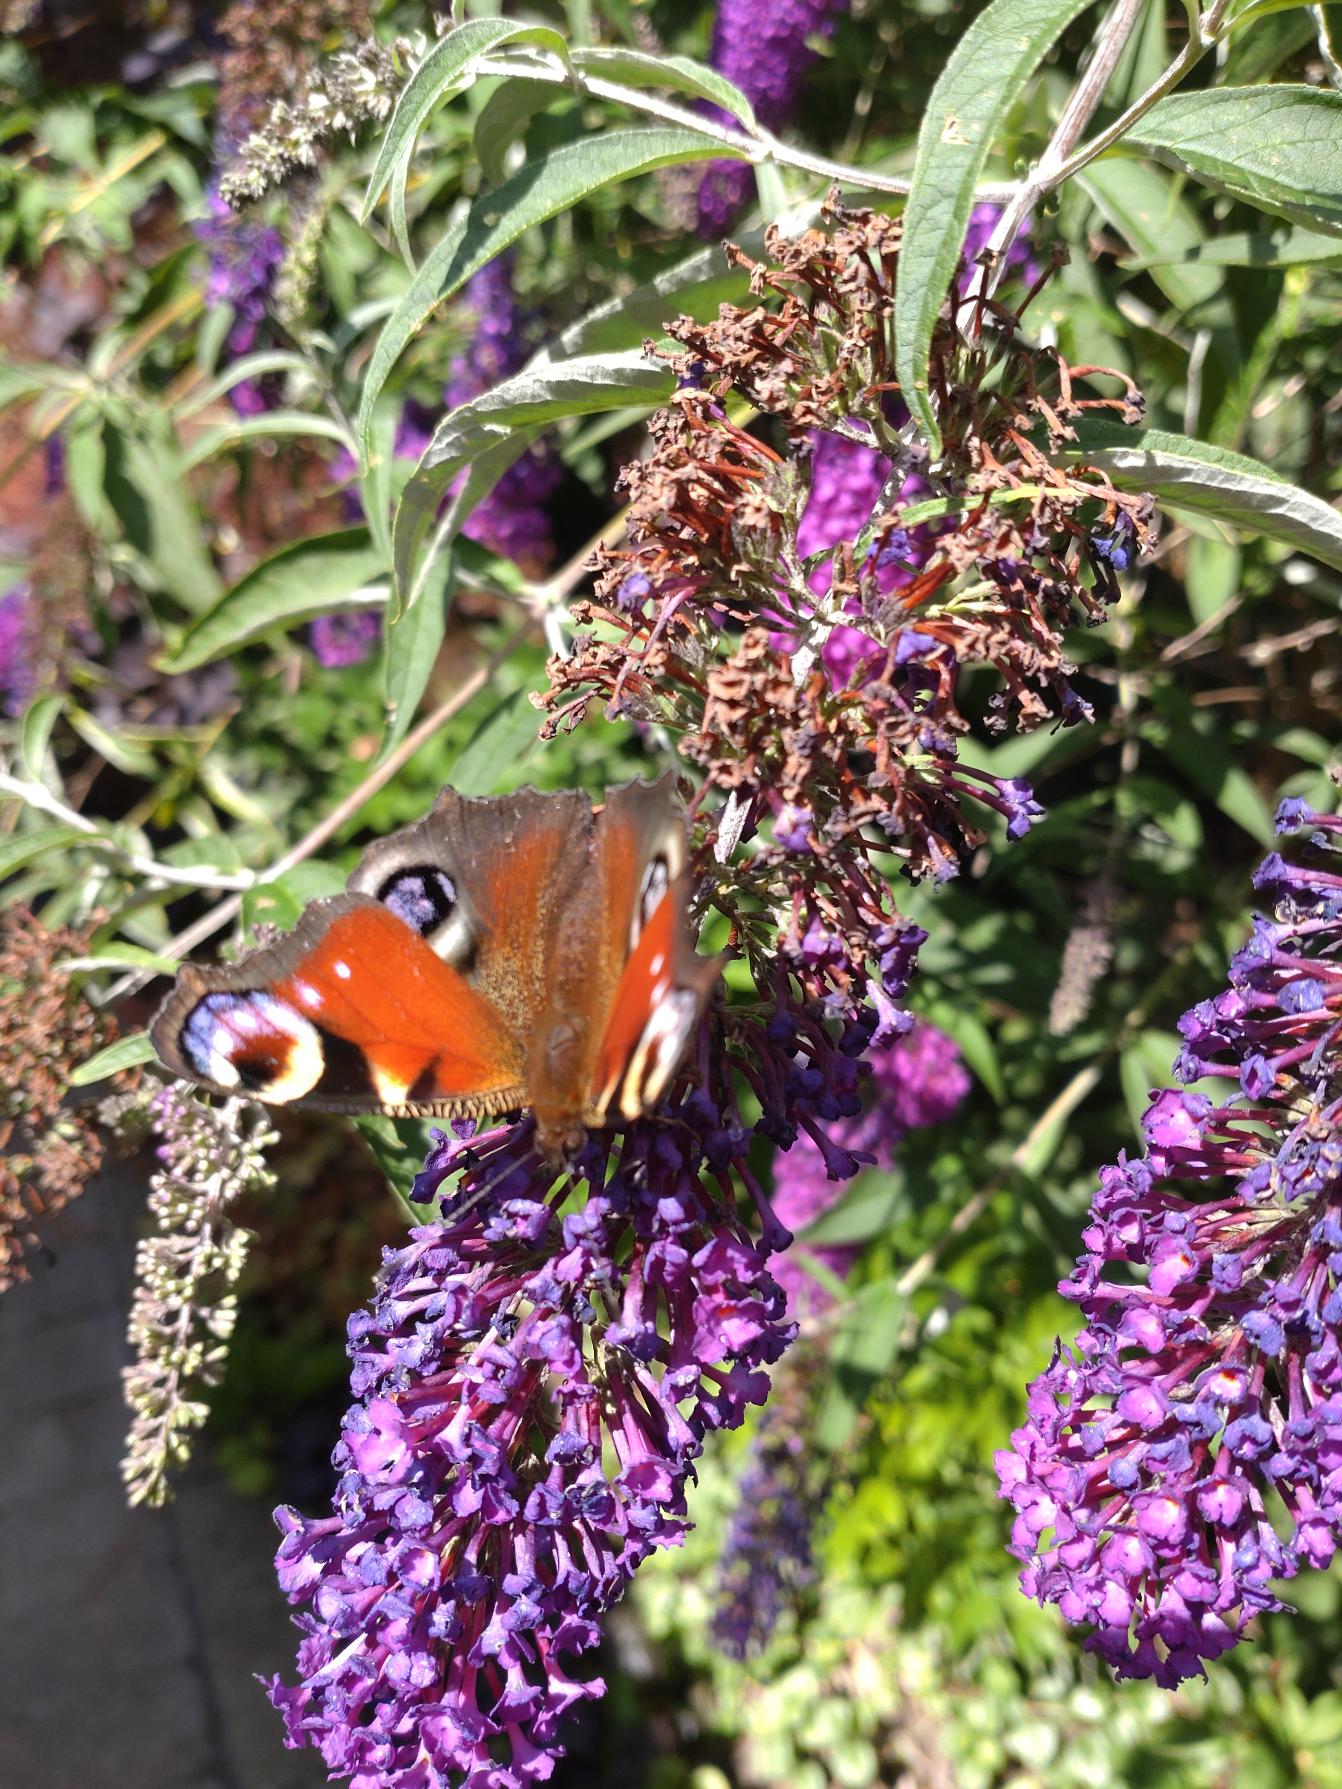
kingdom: Animalia
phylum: Arthropoda
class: Insecta
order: Lepidoptera
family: Nymphalidae
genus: Aglais
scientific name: Aglais io
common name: Dagpåfugleøje
